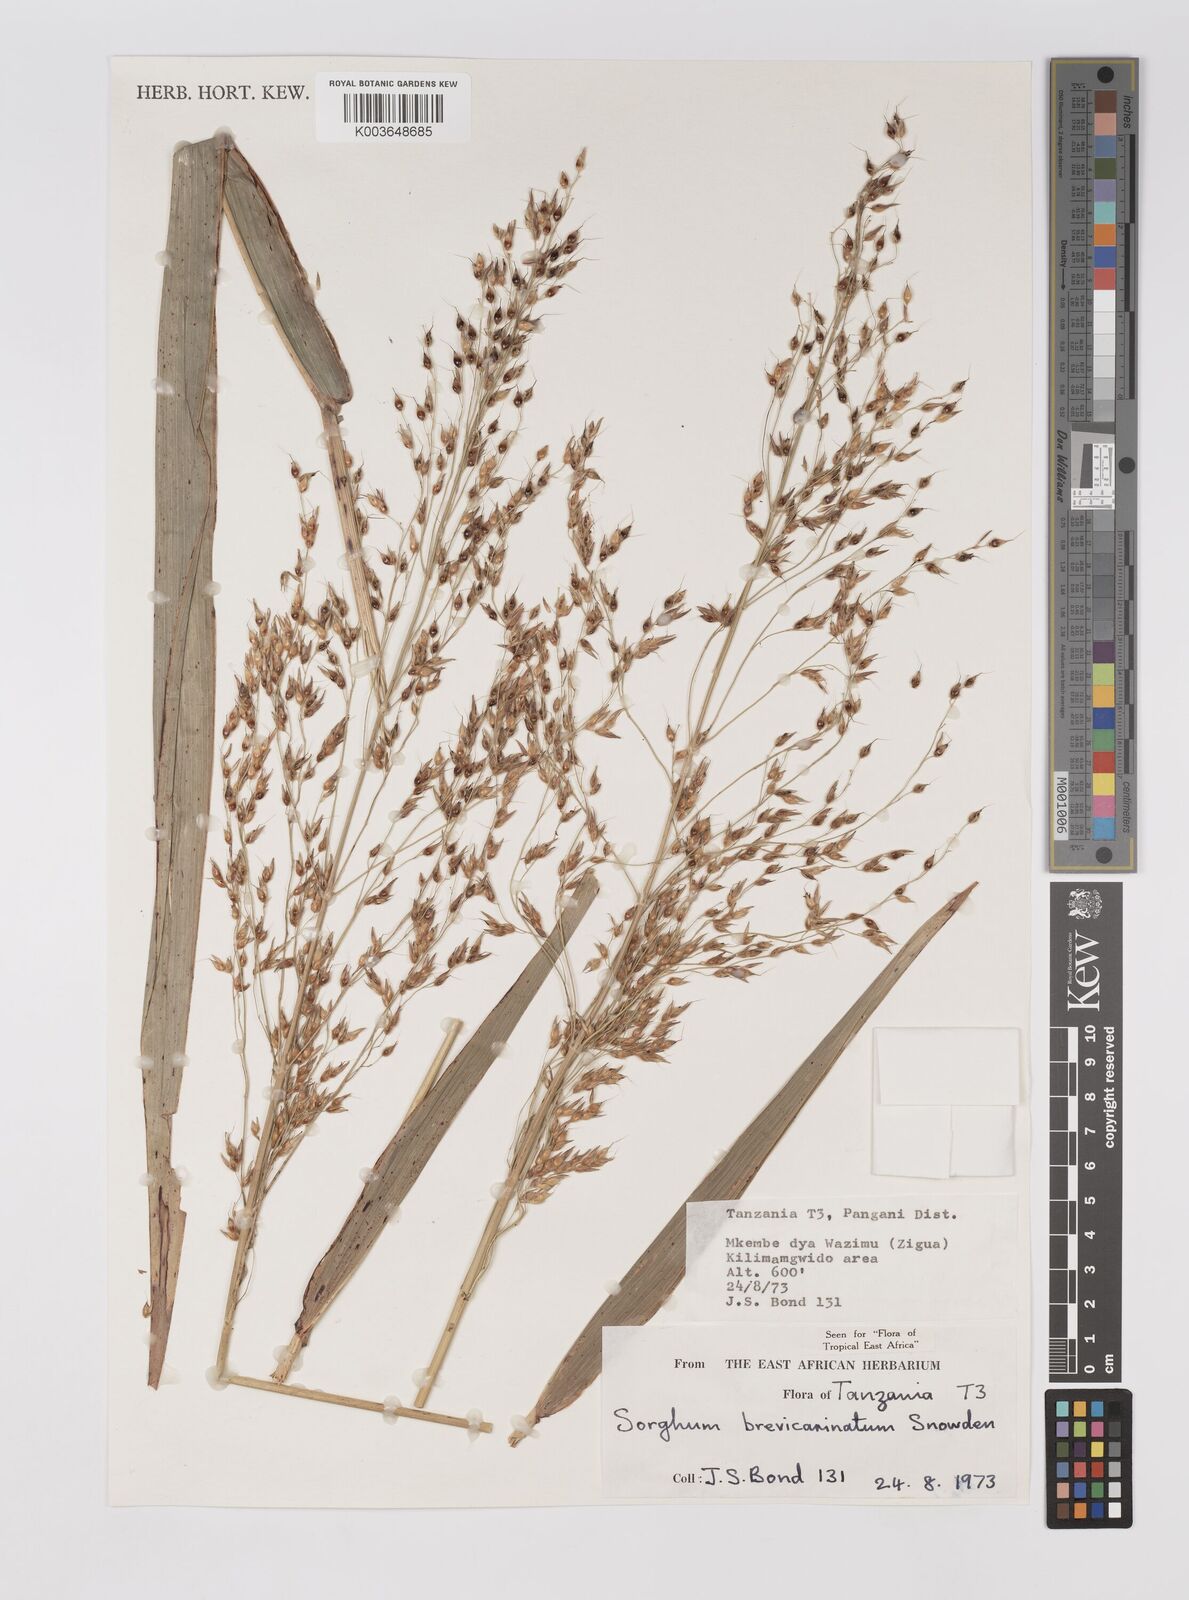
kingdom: Plantae
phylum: Tracheophyta
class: Liliopsida
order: Poales
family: Poaceae
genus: Sorghum
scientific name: Sorghum arundinaceum
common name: Sorghum
